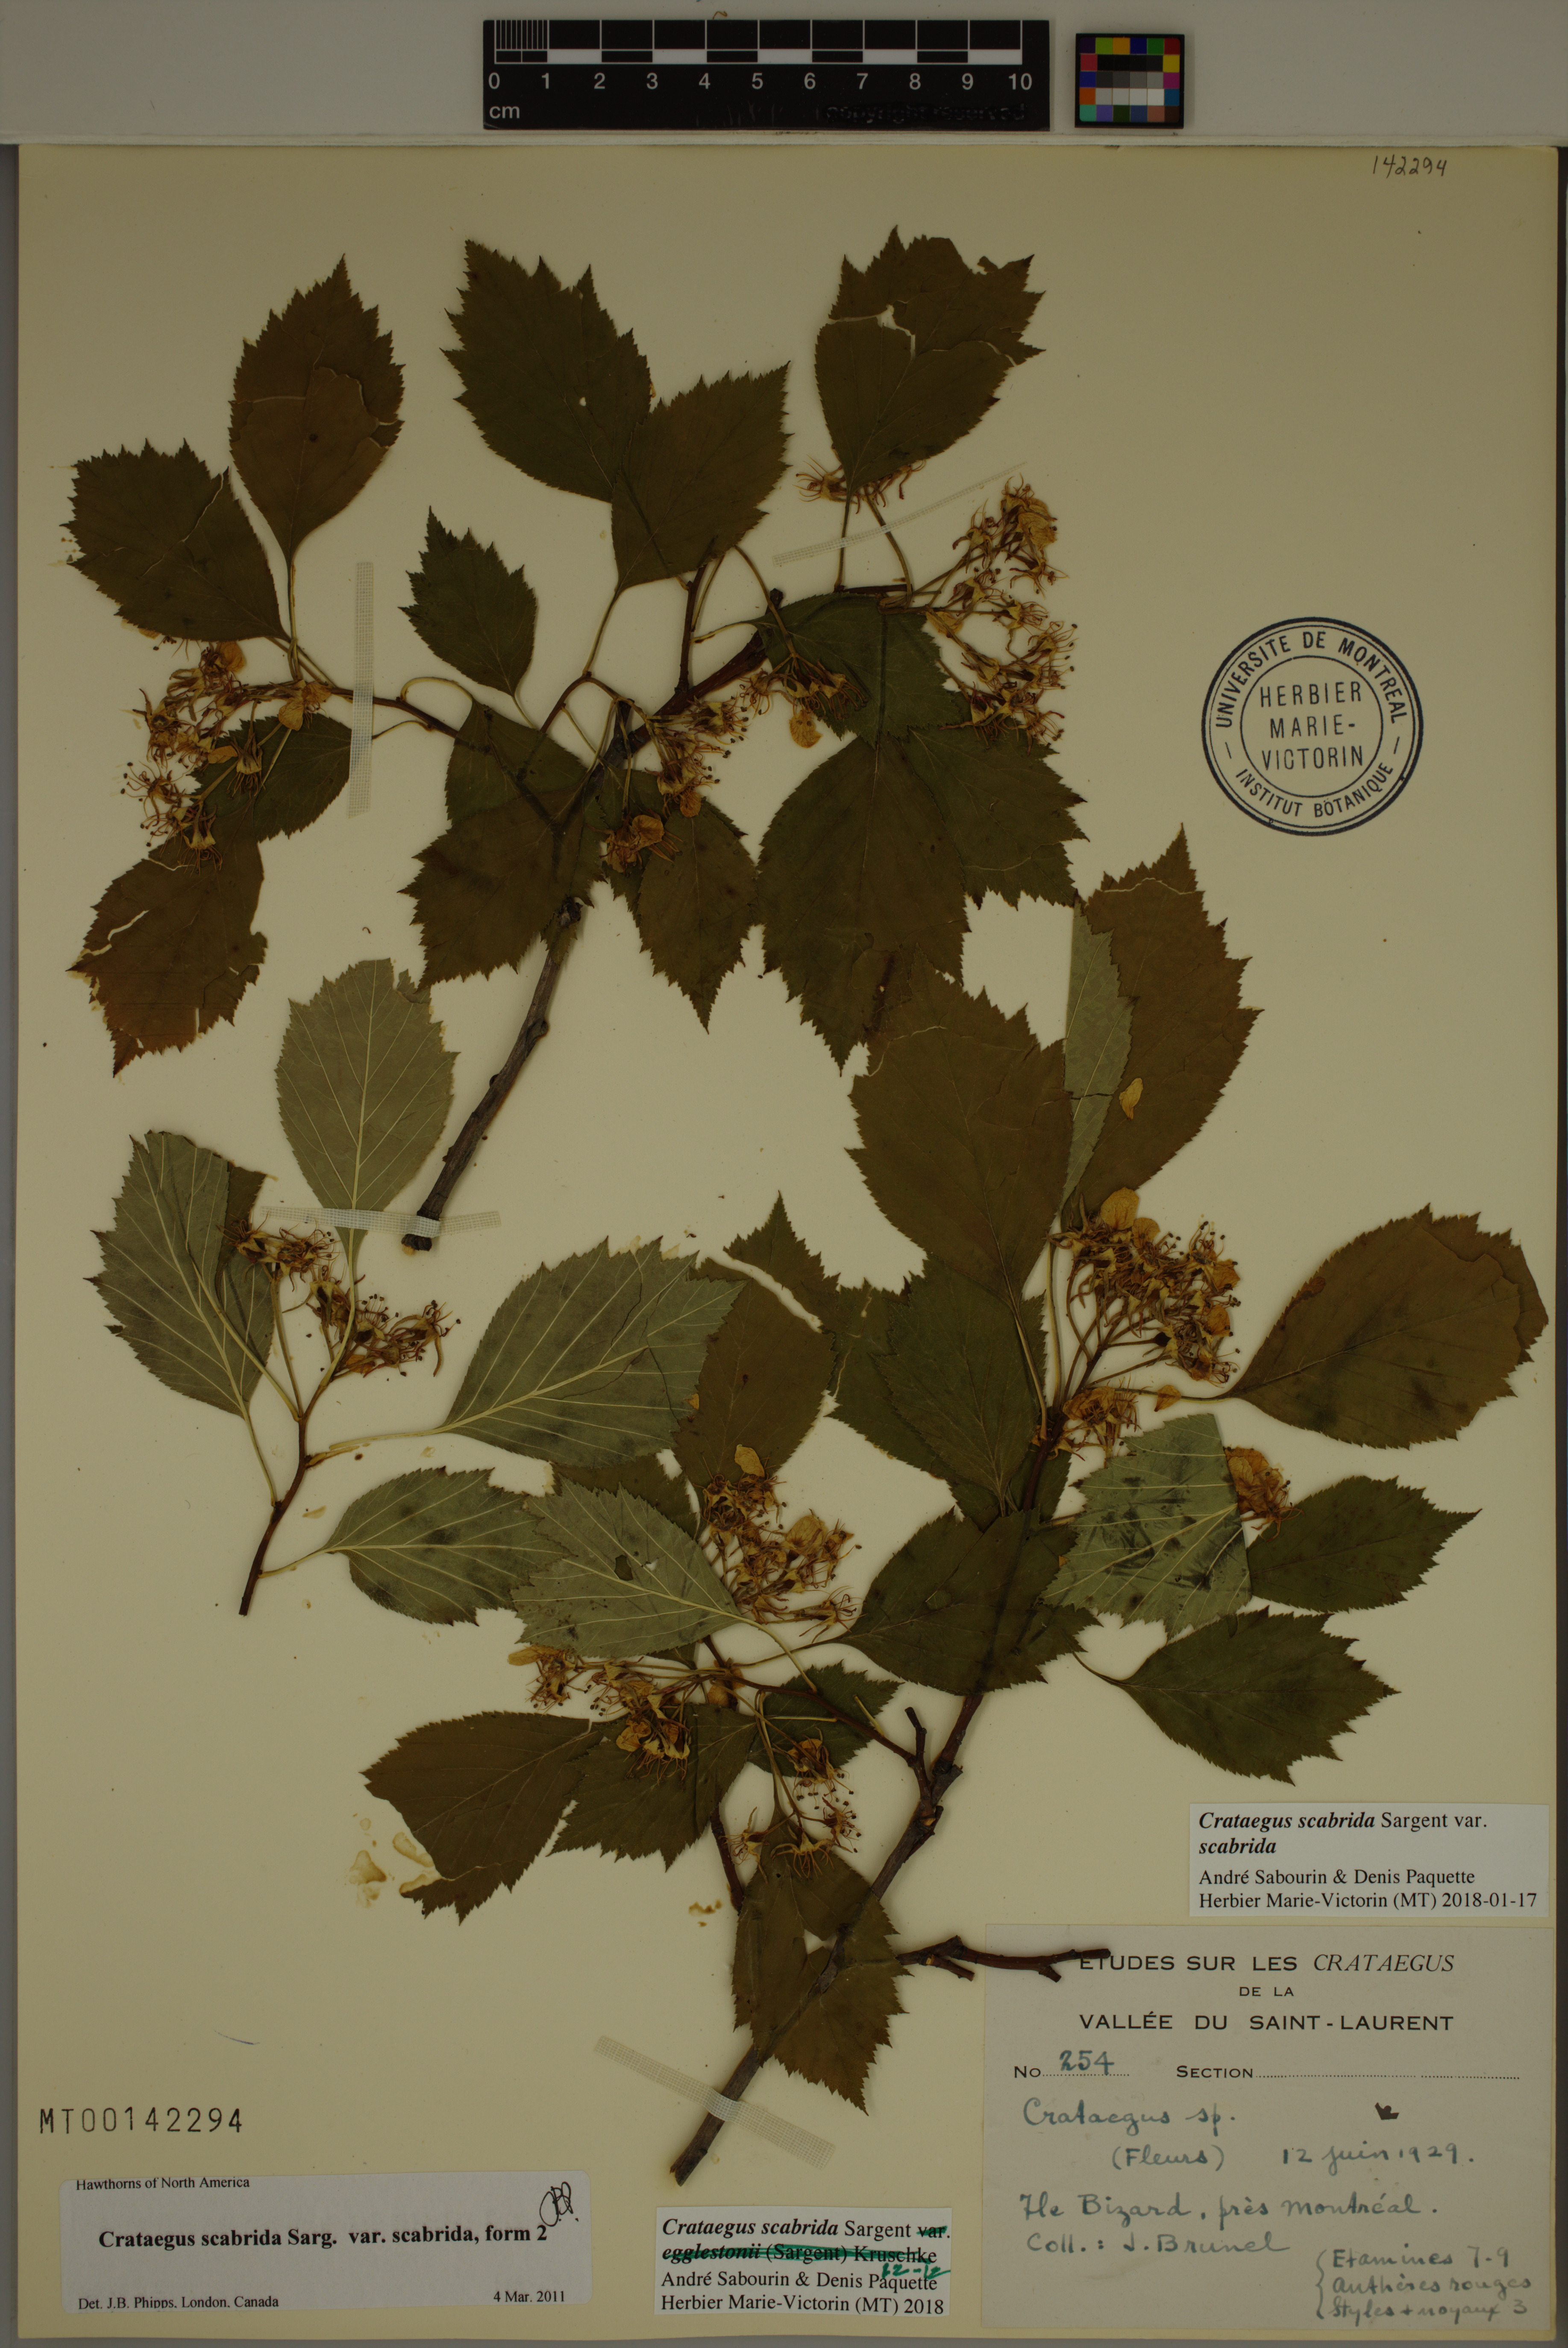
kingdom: Plantae
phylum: Tracheophyta
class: Magnoliopsida
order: Rosales
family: Rosaceae
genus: Crataegus
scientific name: Crataegus scabrida
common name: Rough hawthorn
